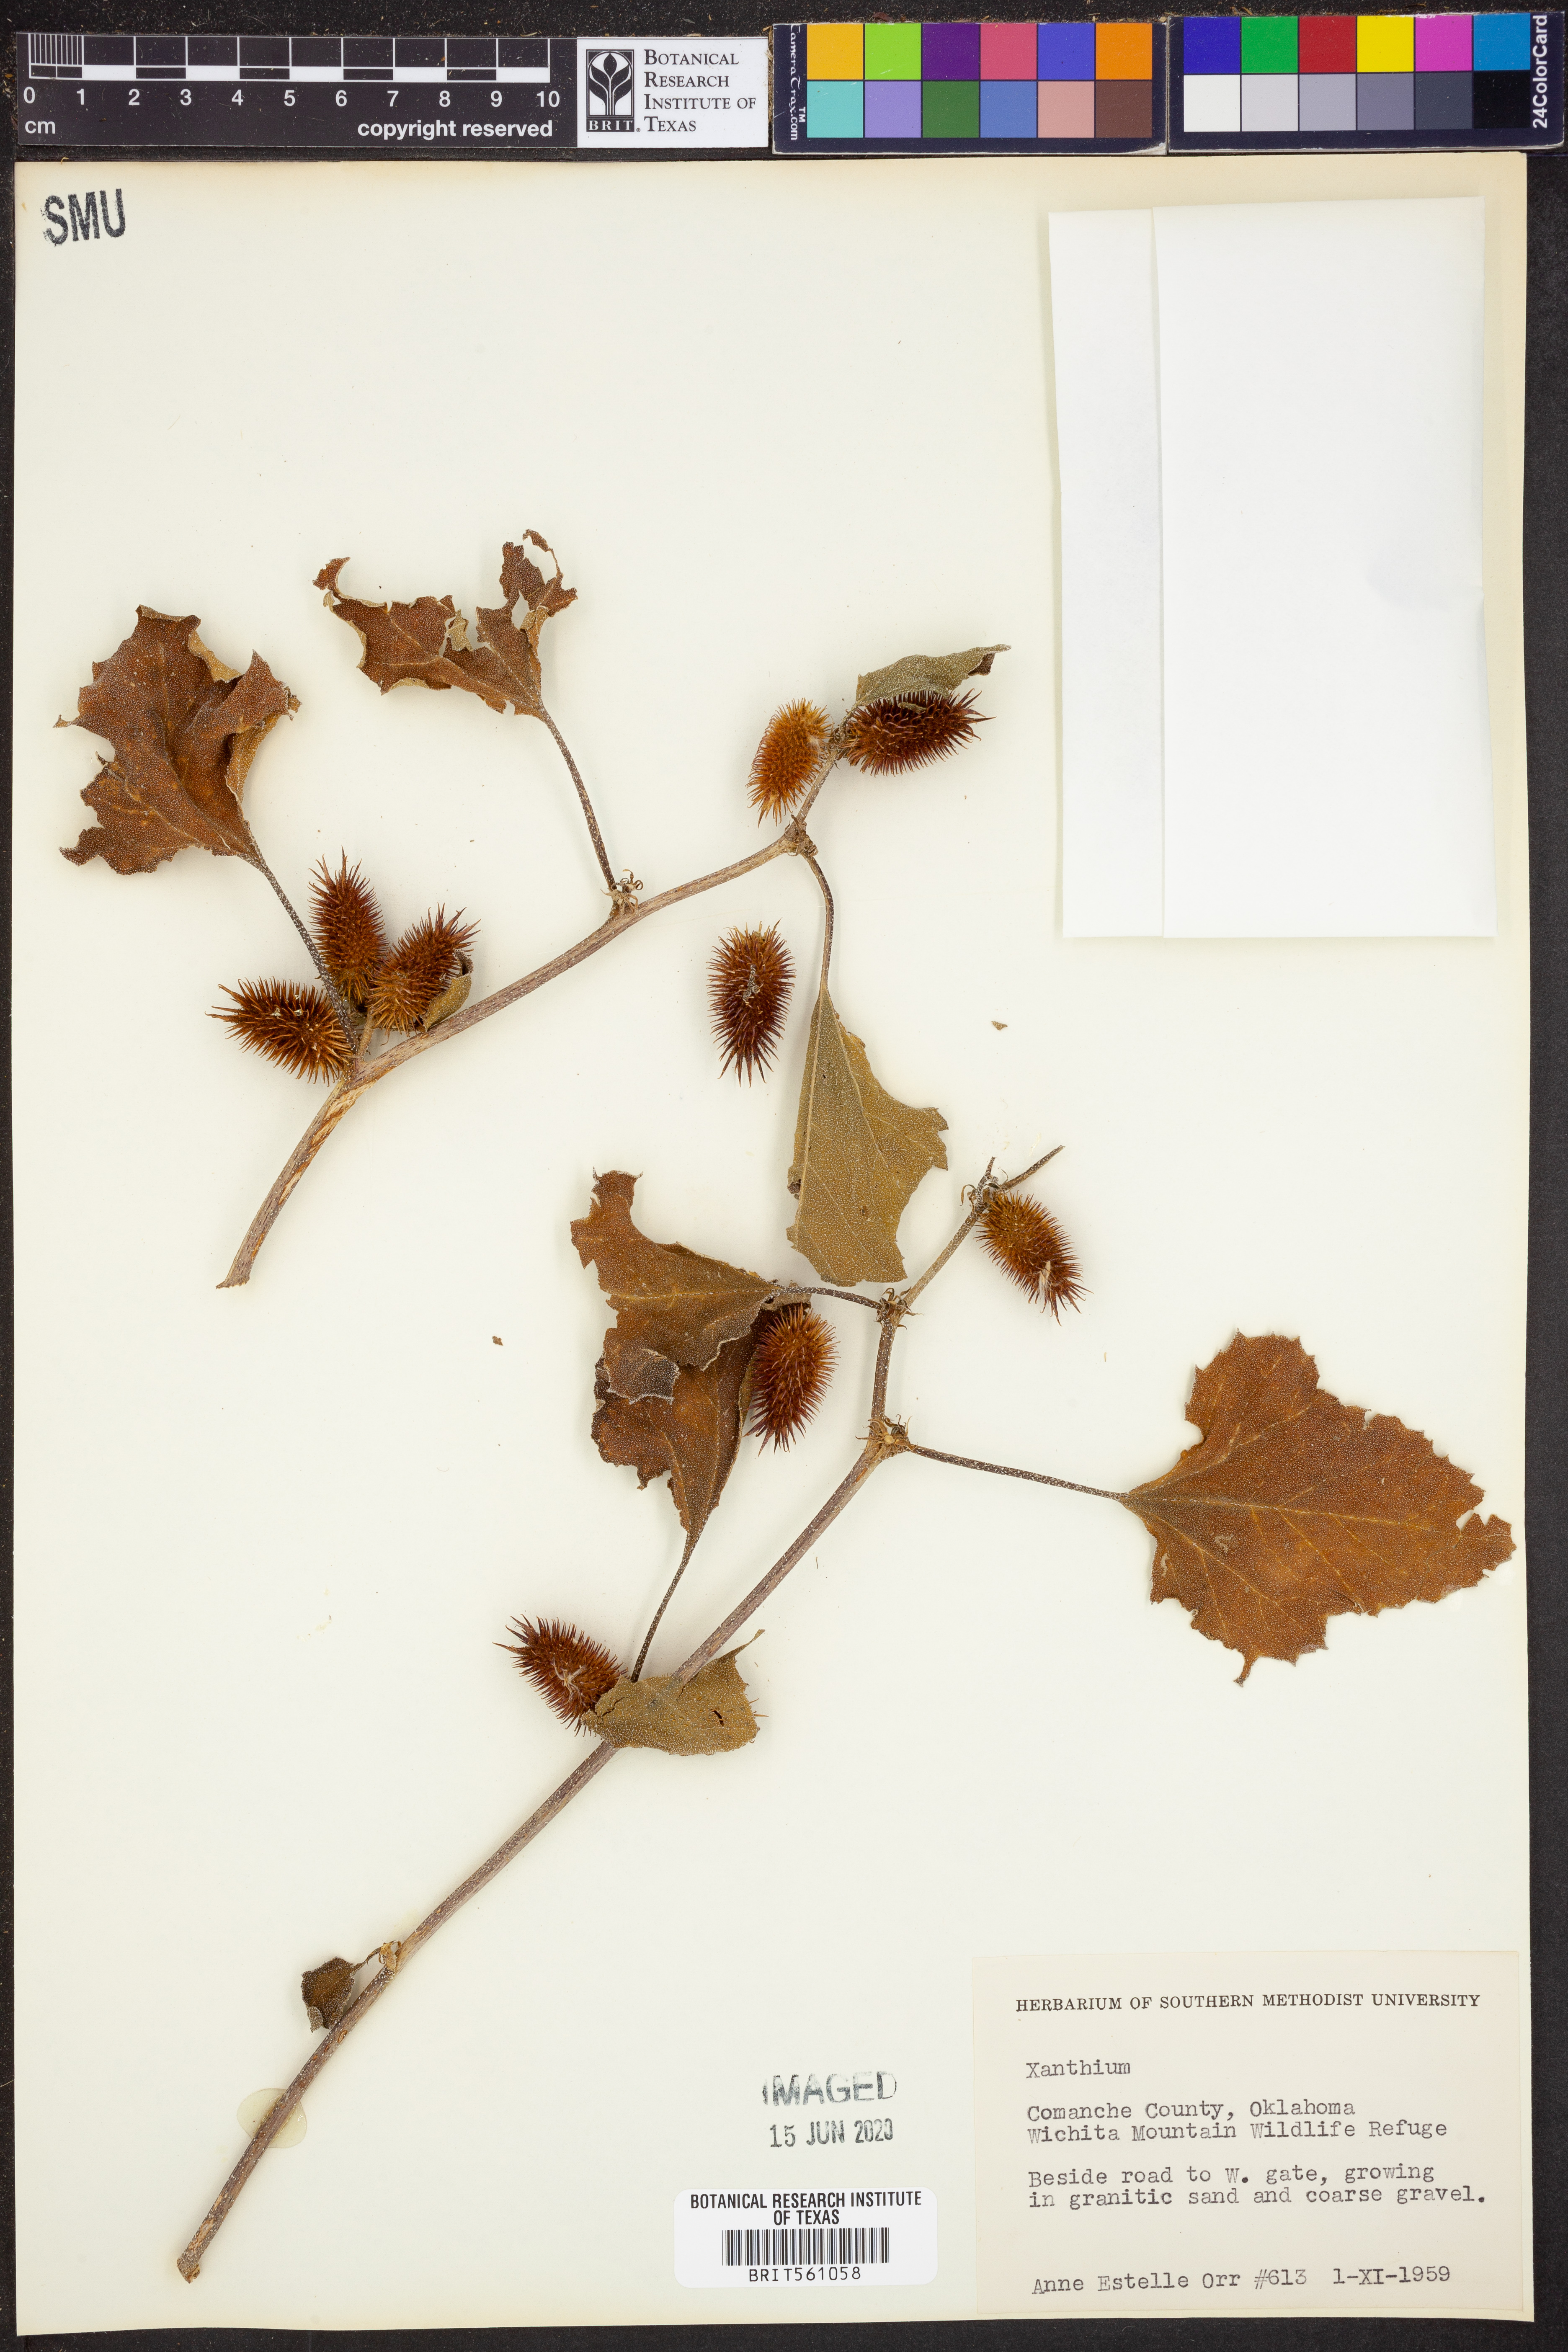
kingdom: Plantae
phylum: Tracheophyta
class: Magnoliopsida
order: Asterales
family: Asteraceae
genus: Xanthium
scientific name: Xanthium
